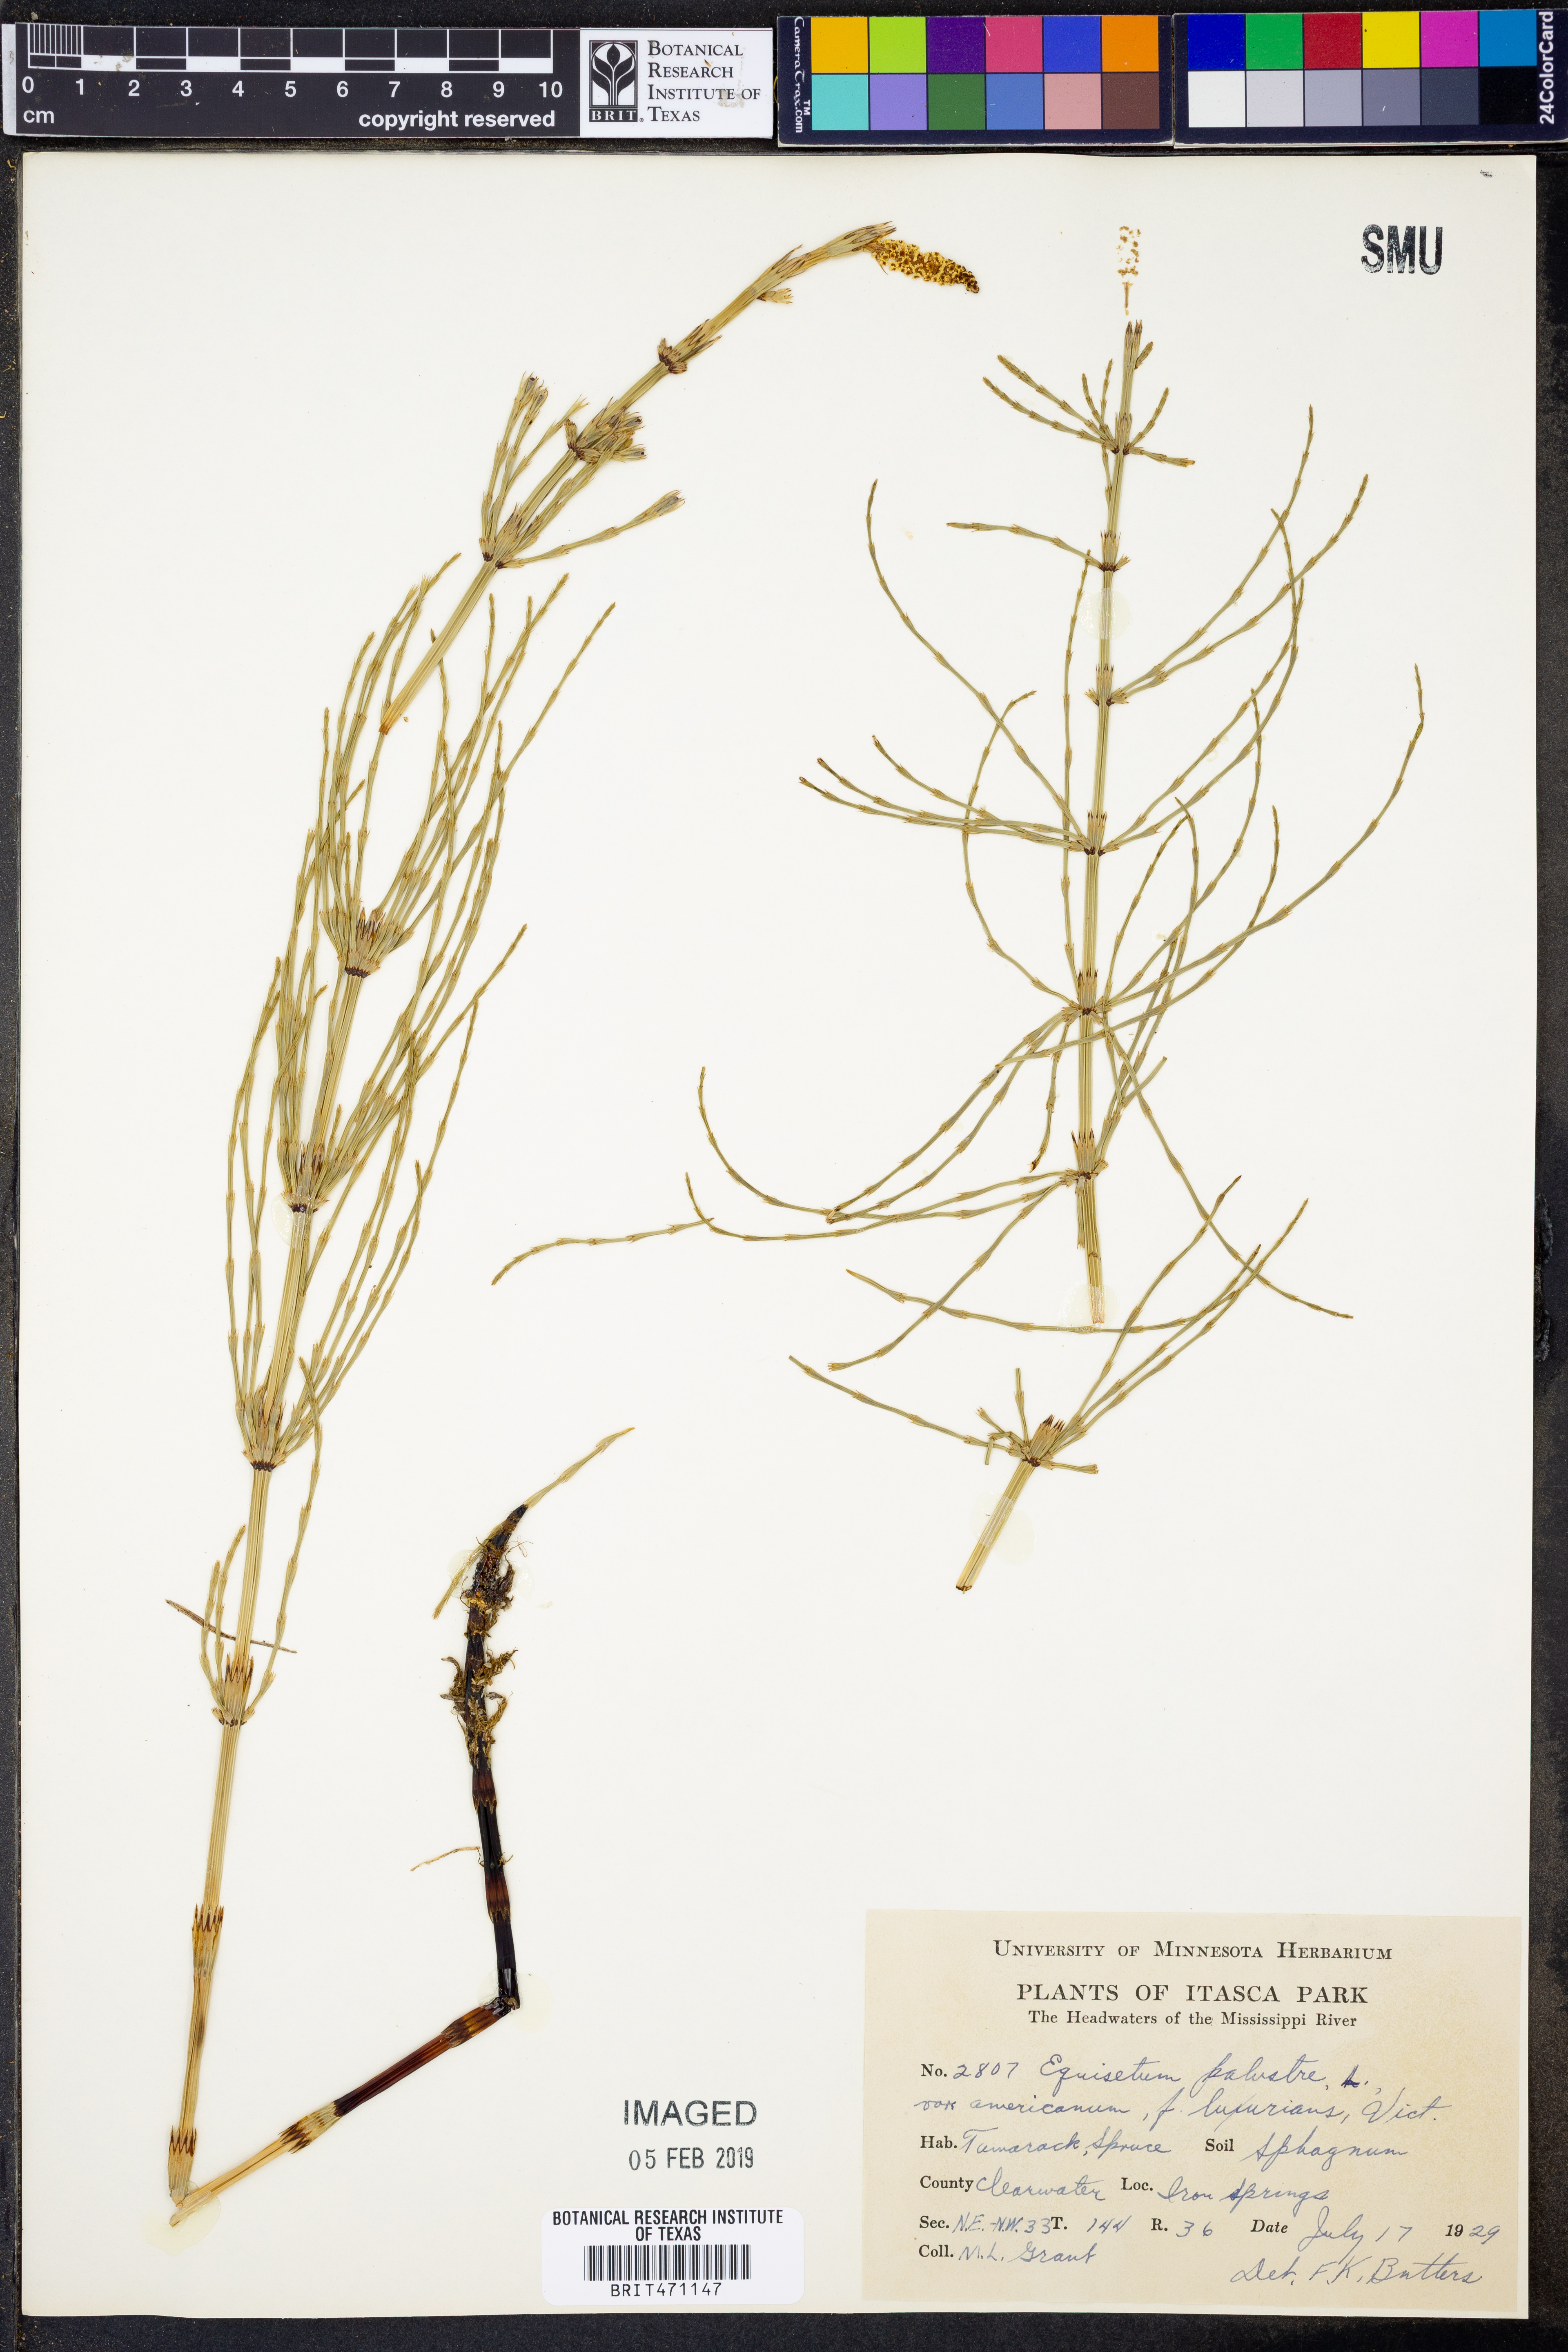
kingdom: Plantae
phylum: Tracheophyta
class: Polypodiopsida
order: Equisetales
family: Equisetaceae
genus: Equisetum
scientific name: Equisetum palustre
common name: Marsh horsetail
